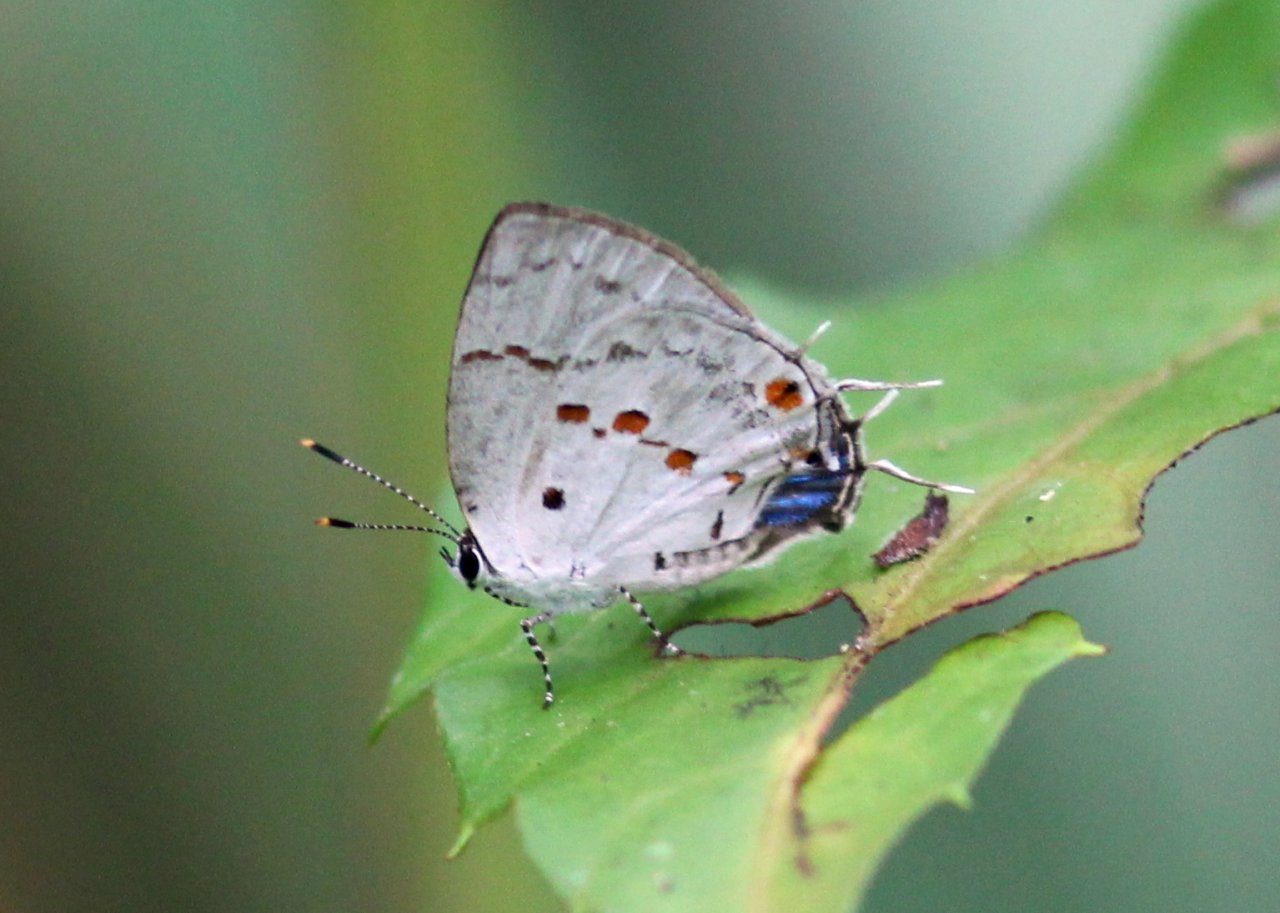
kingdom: Animalia
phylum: Arthropoda
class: Insecta
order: Lepidoptera
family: Lycaenidae
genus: Thecla
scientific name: Thecla celmus
